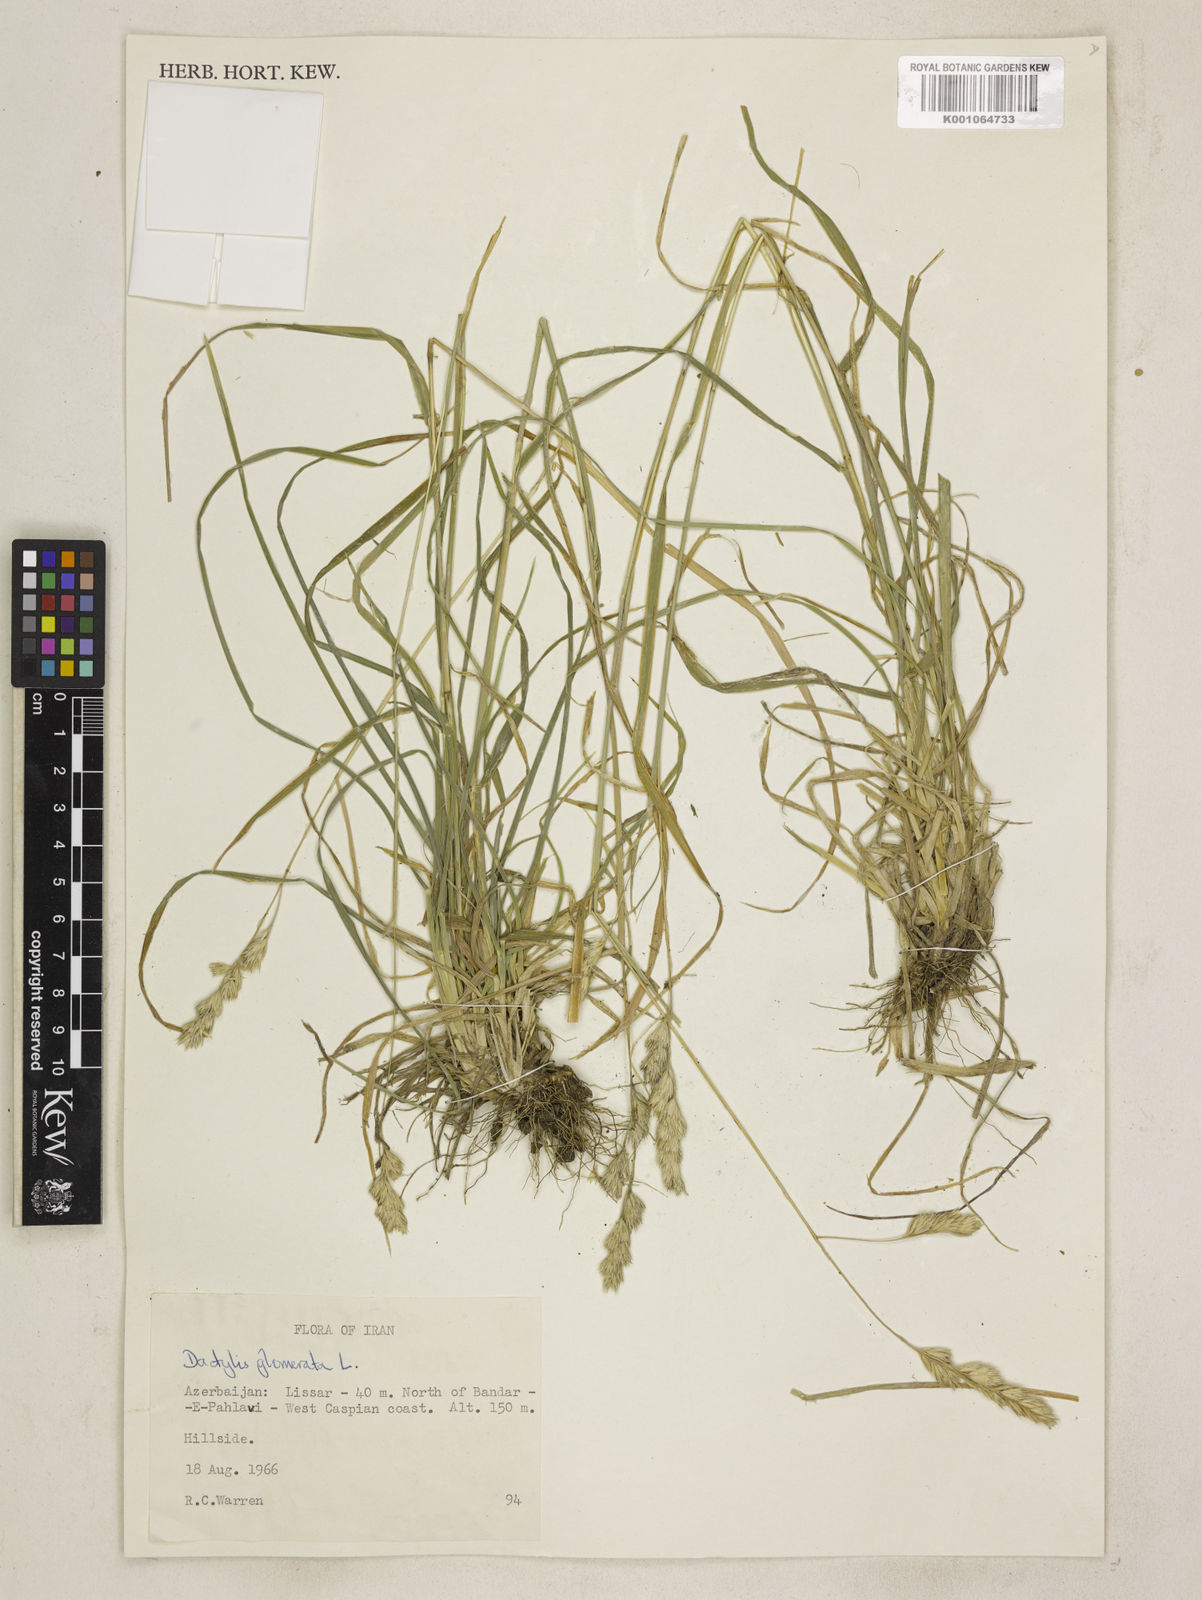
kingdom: Plantae
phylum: Tracheophyta
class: Liliopsida
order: Poales
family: Poaceae
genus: Dactylis
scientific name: Dactylis glomerata
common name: Orchardgrass
